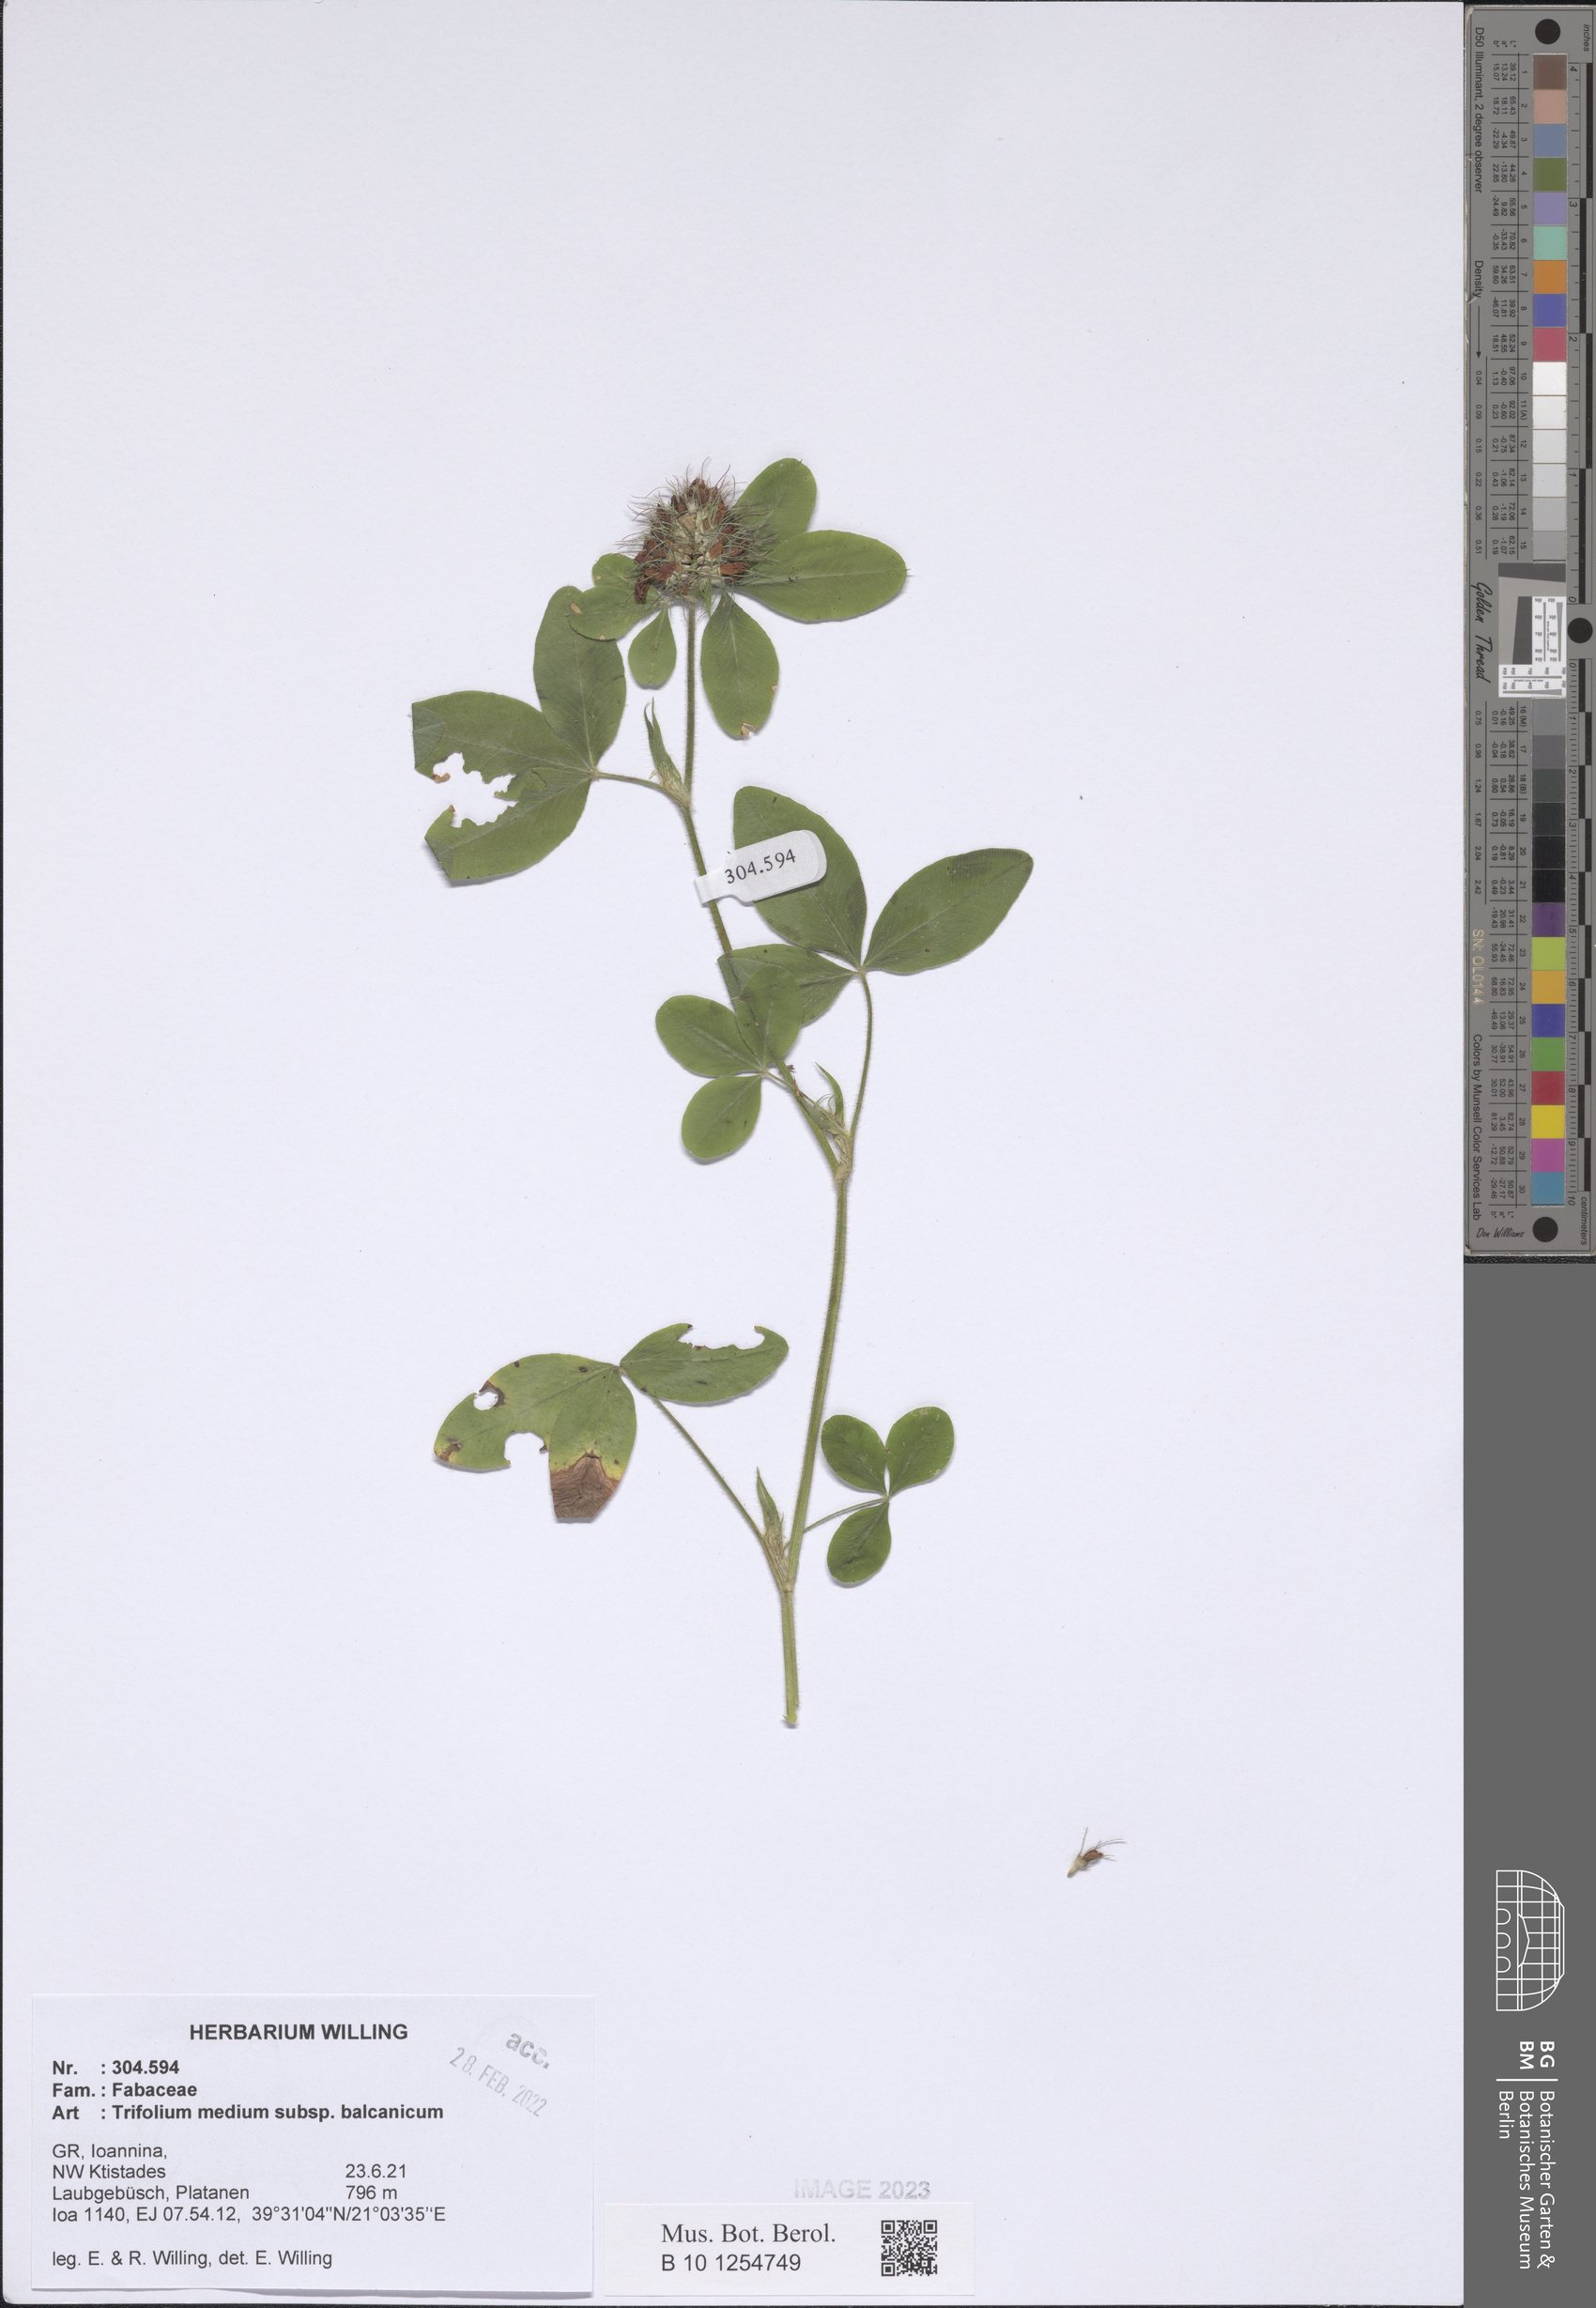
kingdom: Plantae
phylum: Tracheophyta
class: Magnoliopsida
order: Fabales
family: Fabaceae
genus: Trifolium
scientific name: Trifolium pseudomedium
